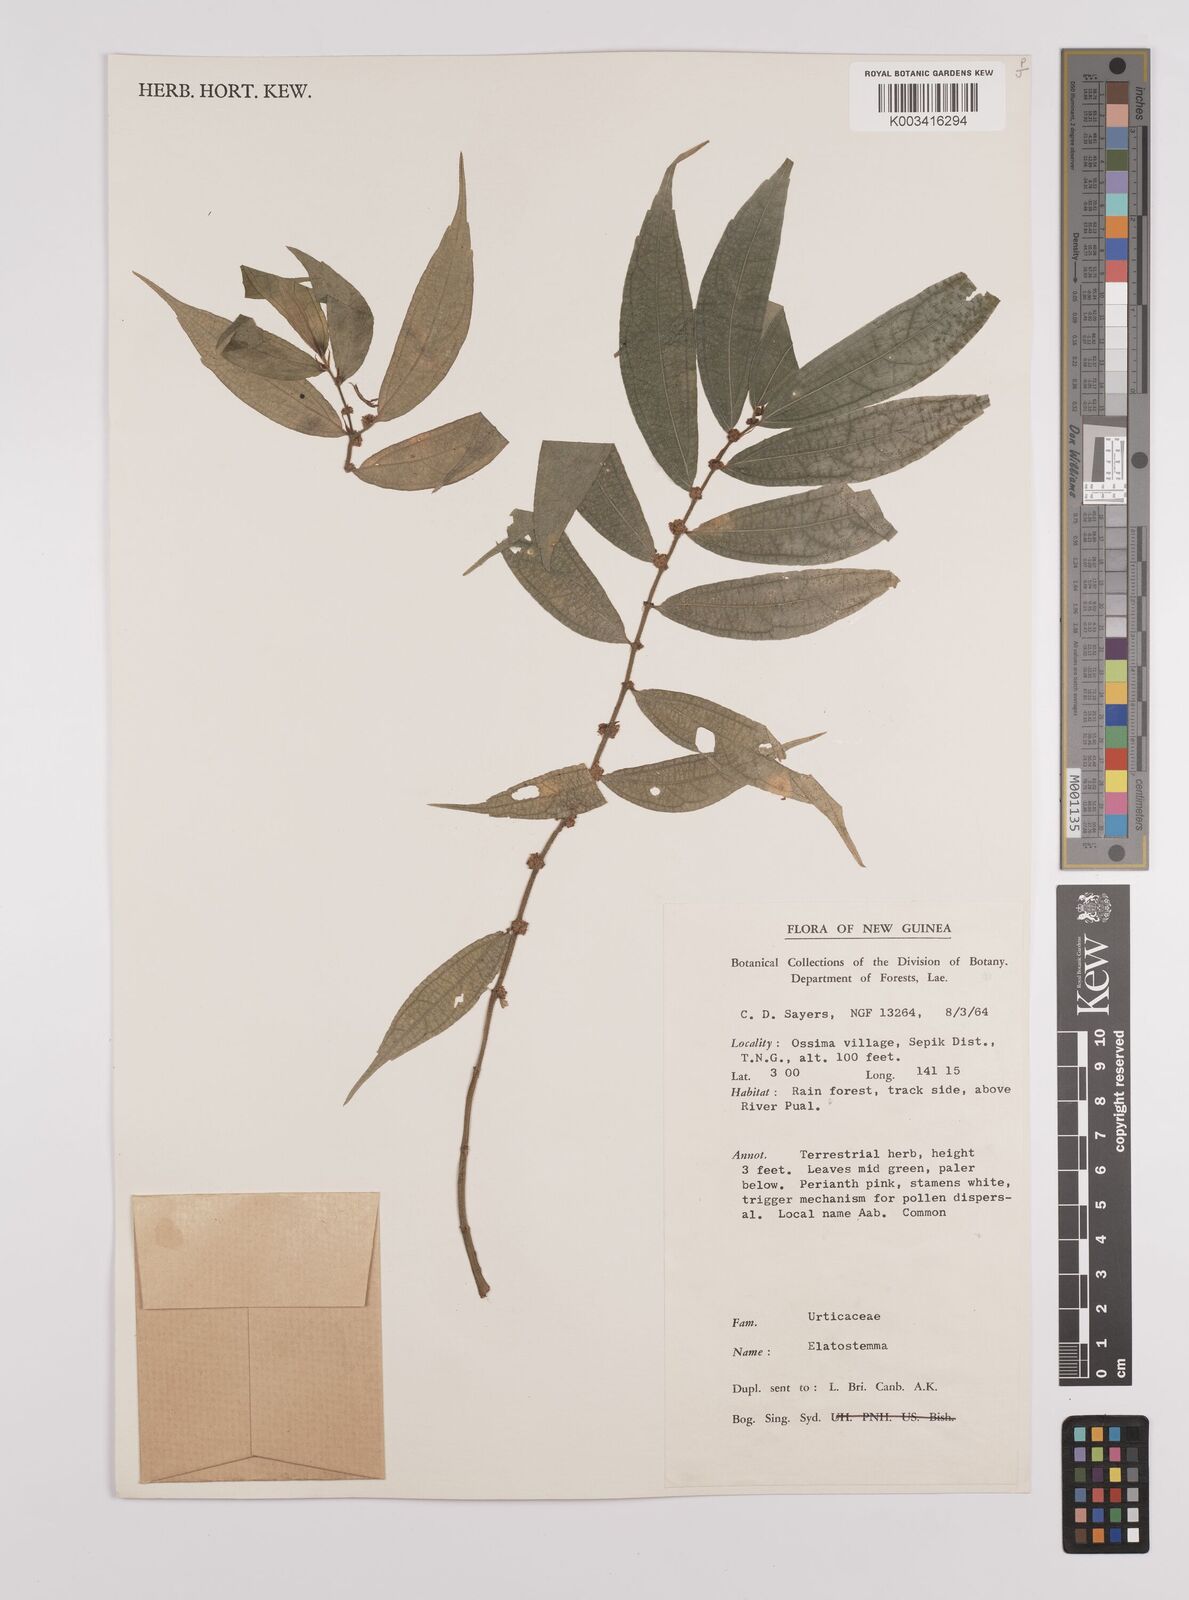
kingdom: Plantae
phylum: Tracheophyta
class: Magnoliopsida
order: Rosales
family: Urticaceae
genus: Elatostema
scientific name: Elatostema integrifolium
